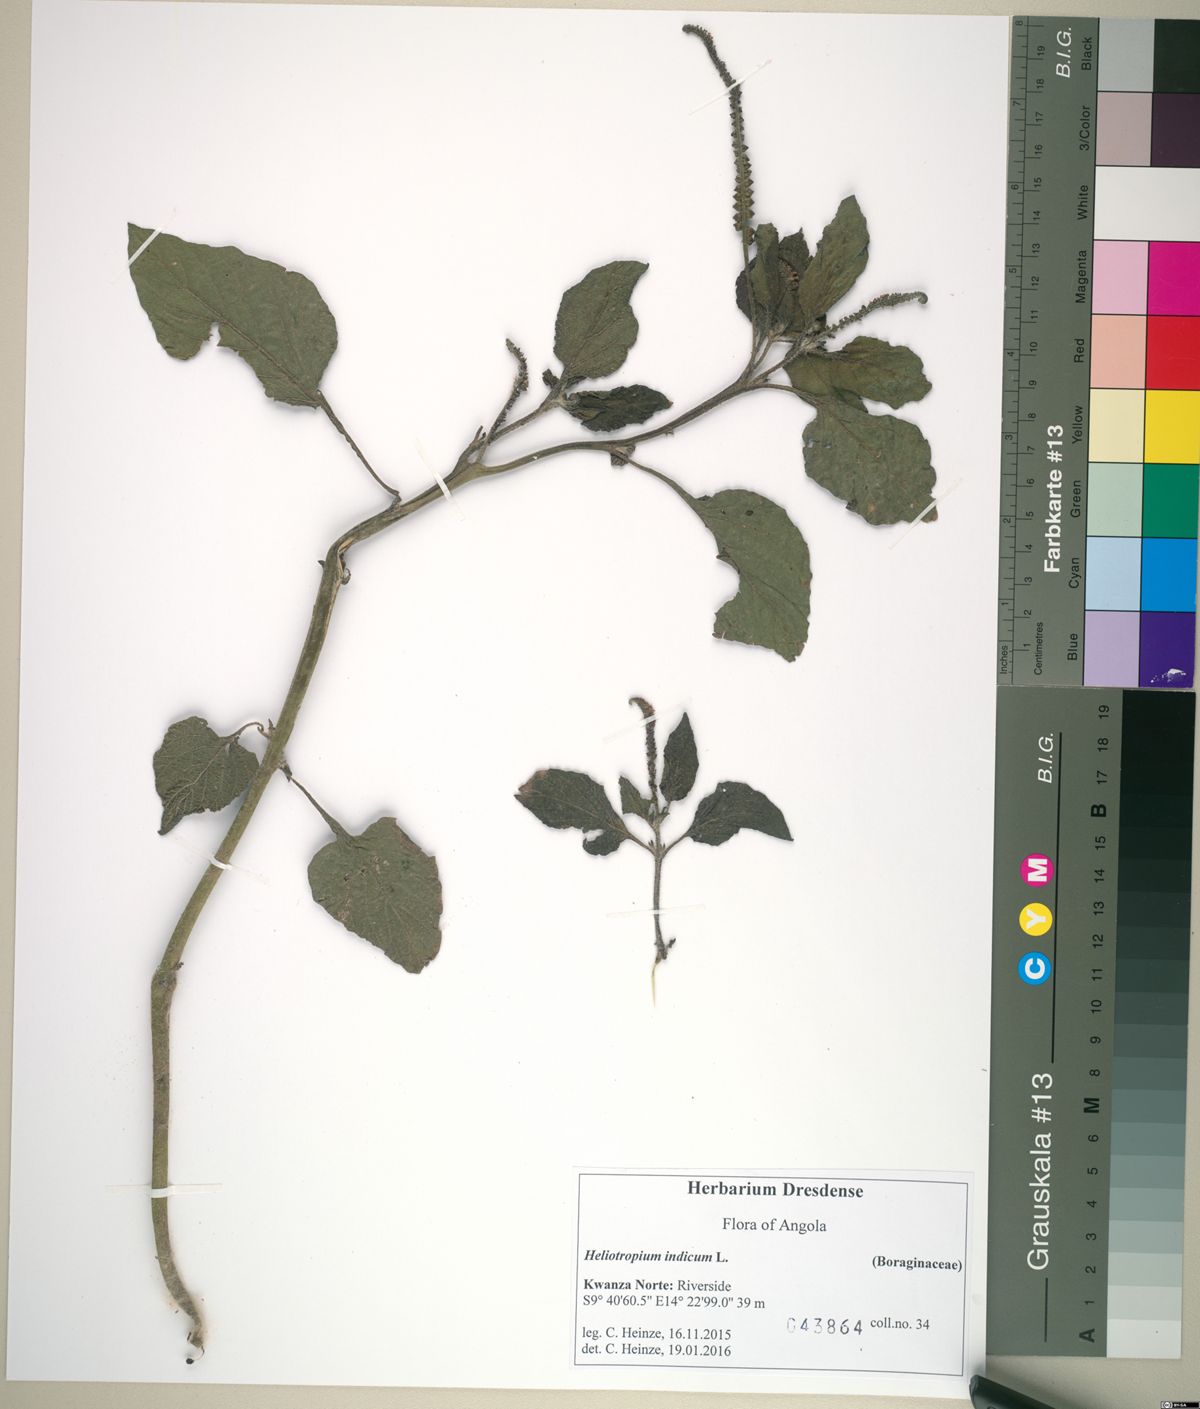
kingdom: Plantae
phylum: Tracheophyta
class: Magnoliopsida
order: Boraginales
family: Heliotropiaceae
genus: Heliotropium
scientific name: Heliotropium indicum
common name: Indian heliotrope
